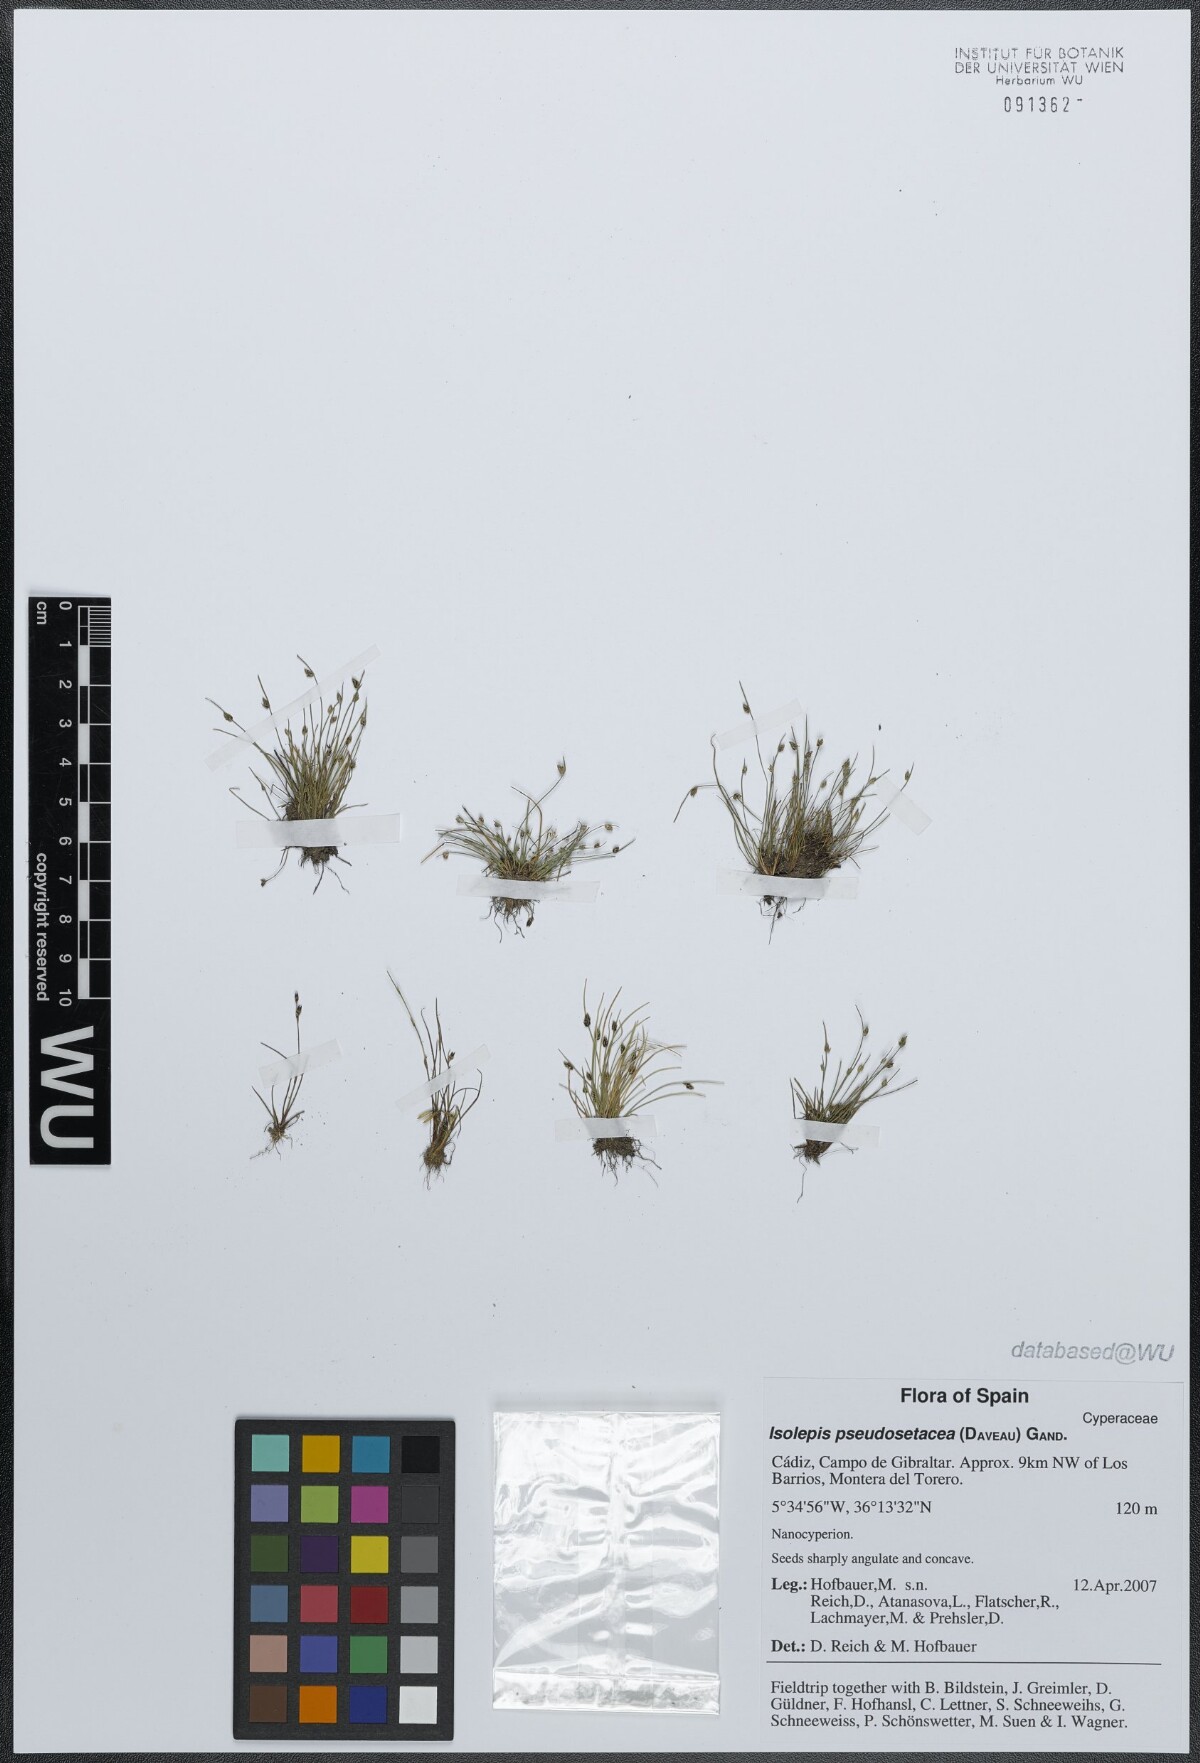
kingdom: Plantae
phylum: Tracheophyta
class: Liliopsida
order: Poales
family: Cyperaceae
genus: Isolepis
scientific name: Isolepis pseudosetacea
